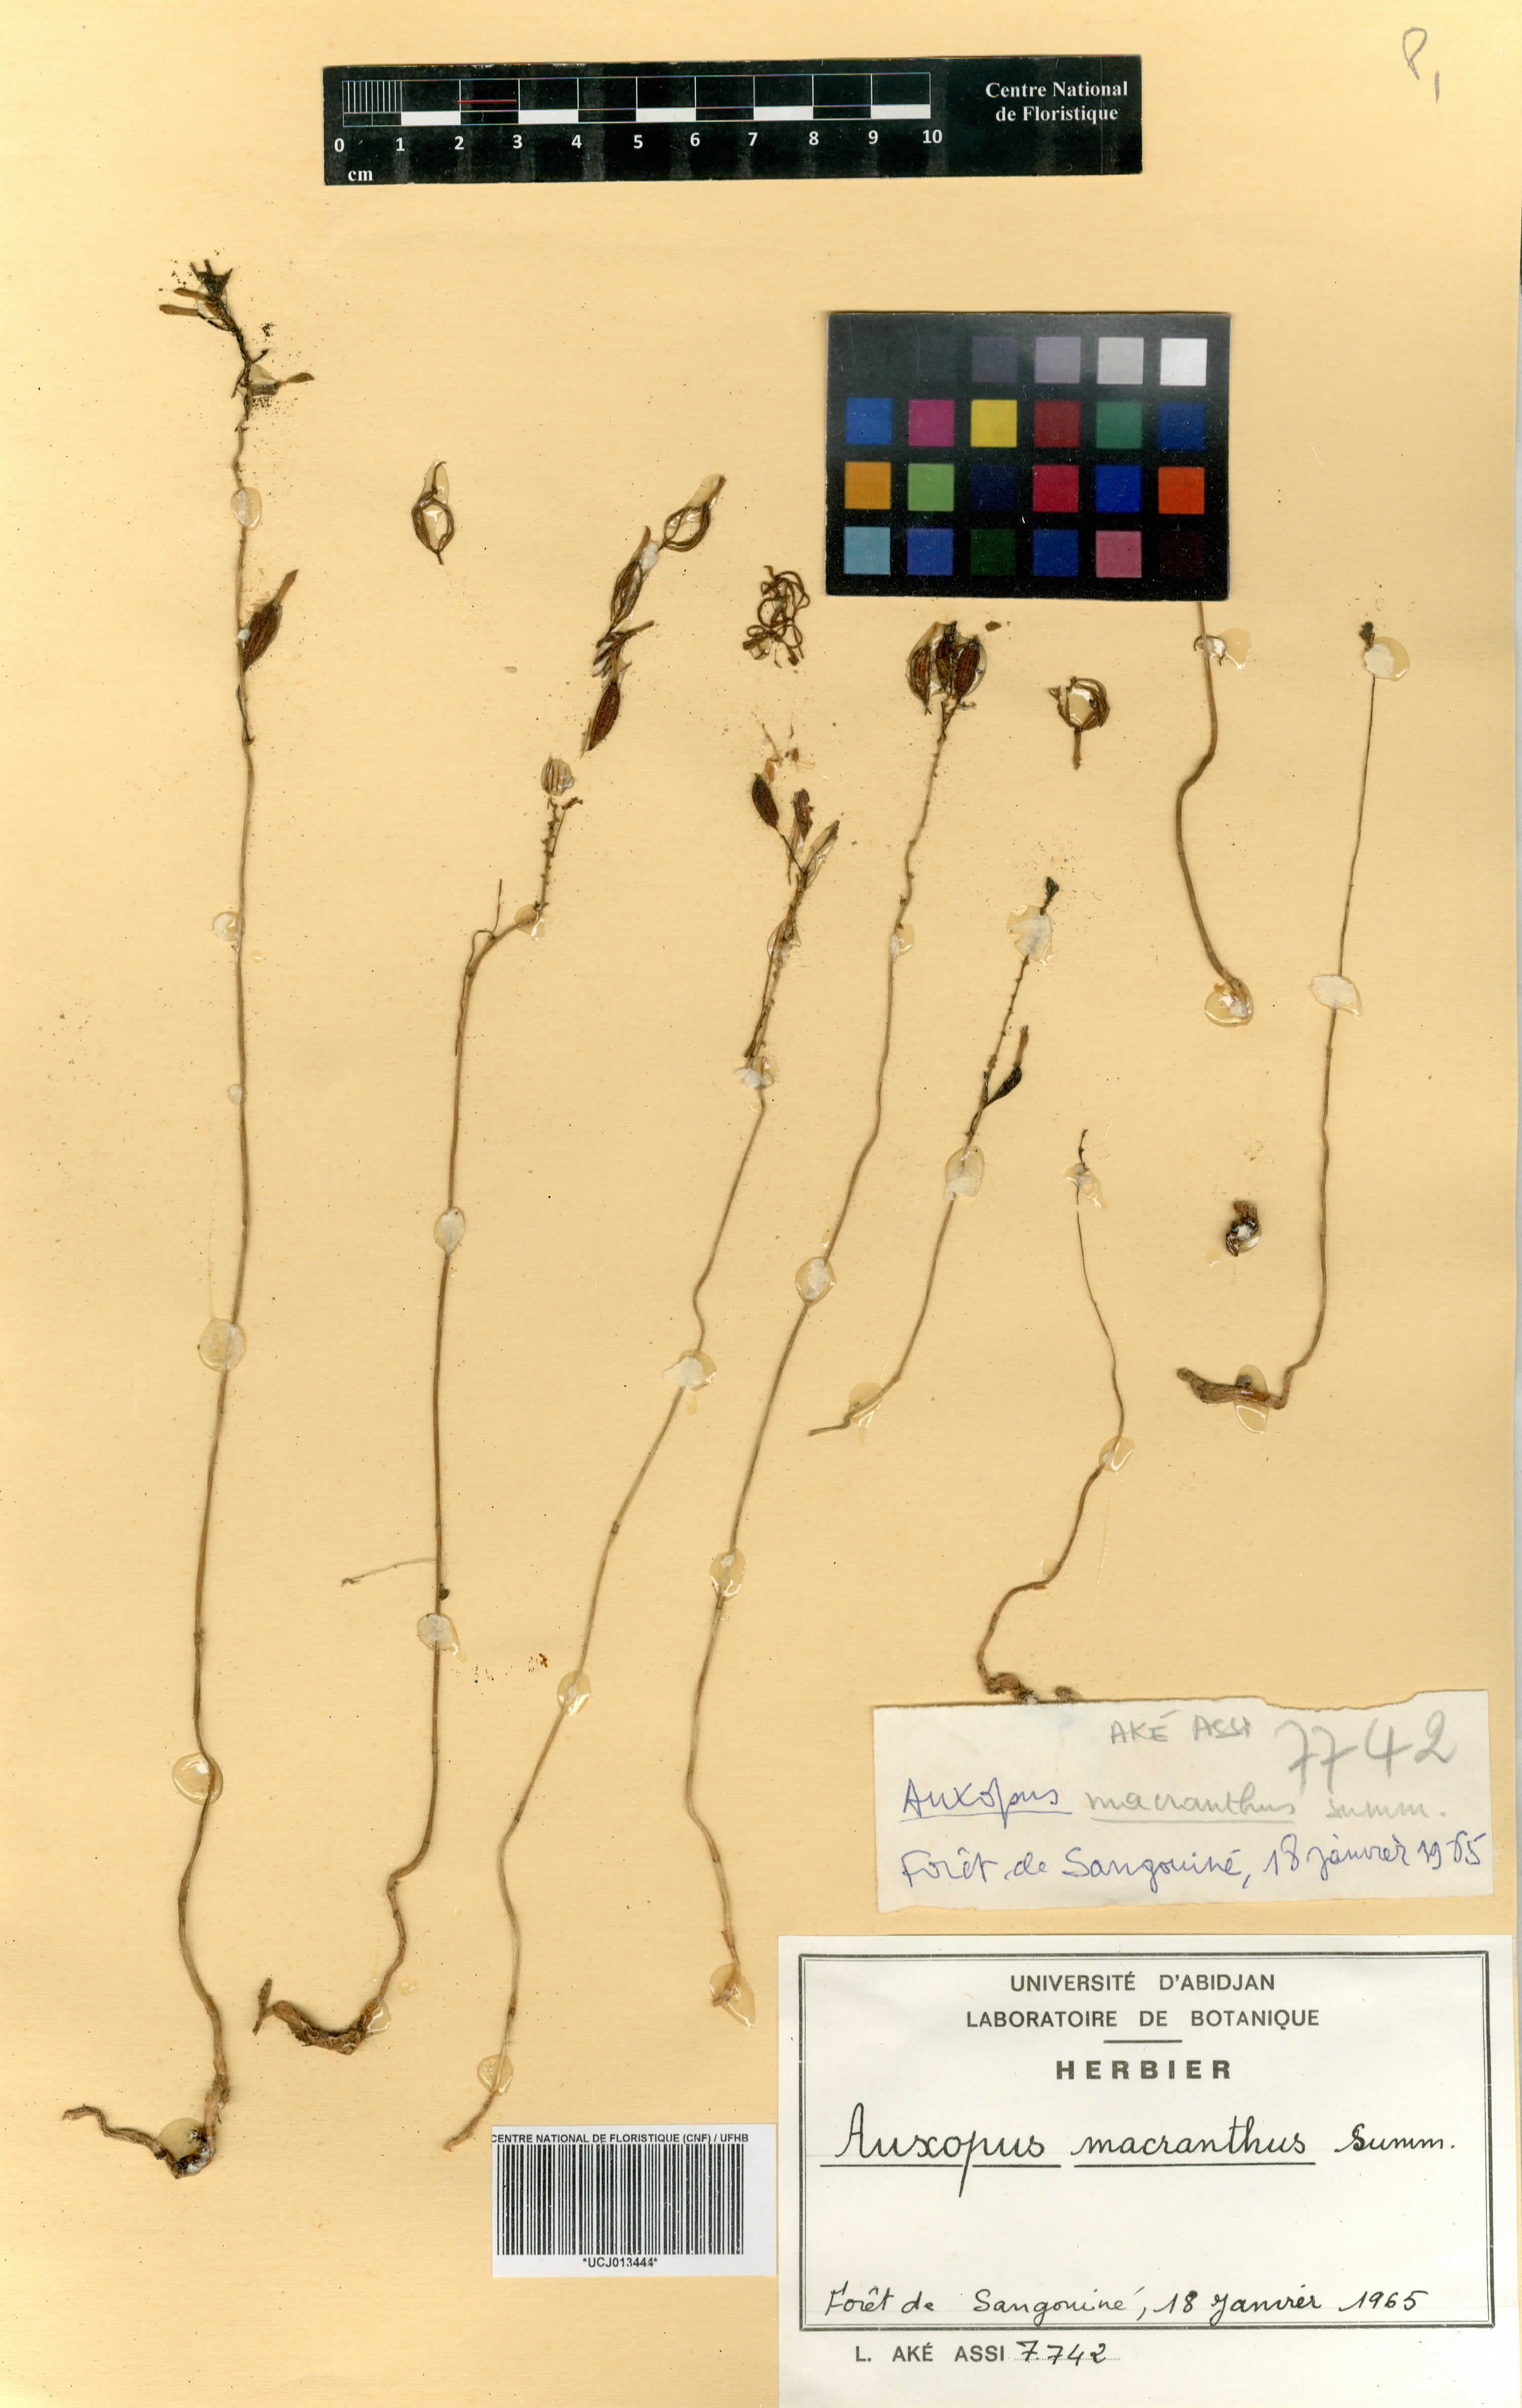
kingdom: Plantae
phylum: Tracheophyta
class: Liliopsida
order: Asparagales
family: Orchidaceae
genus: Auxopus
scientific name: Auxopus macranthus
